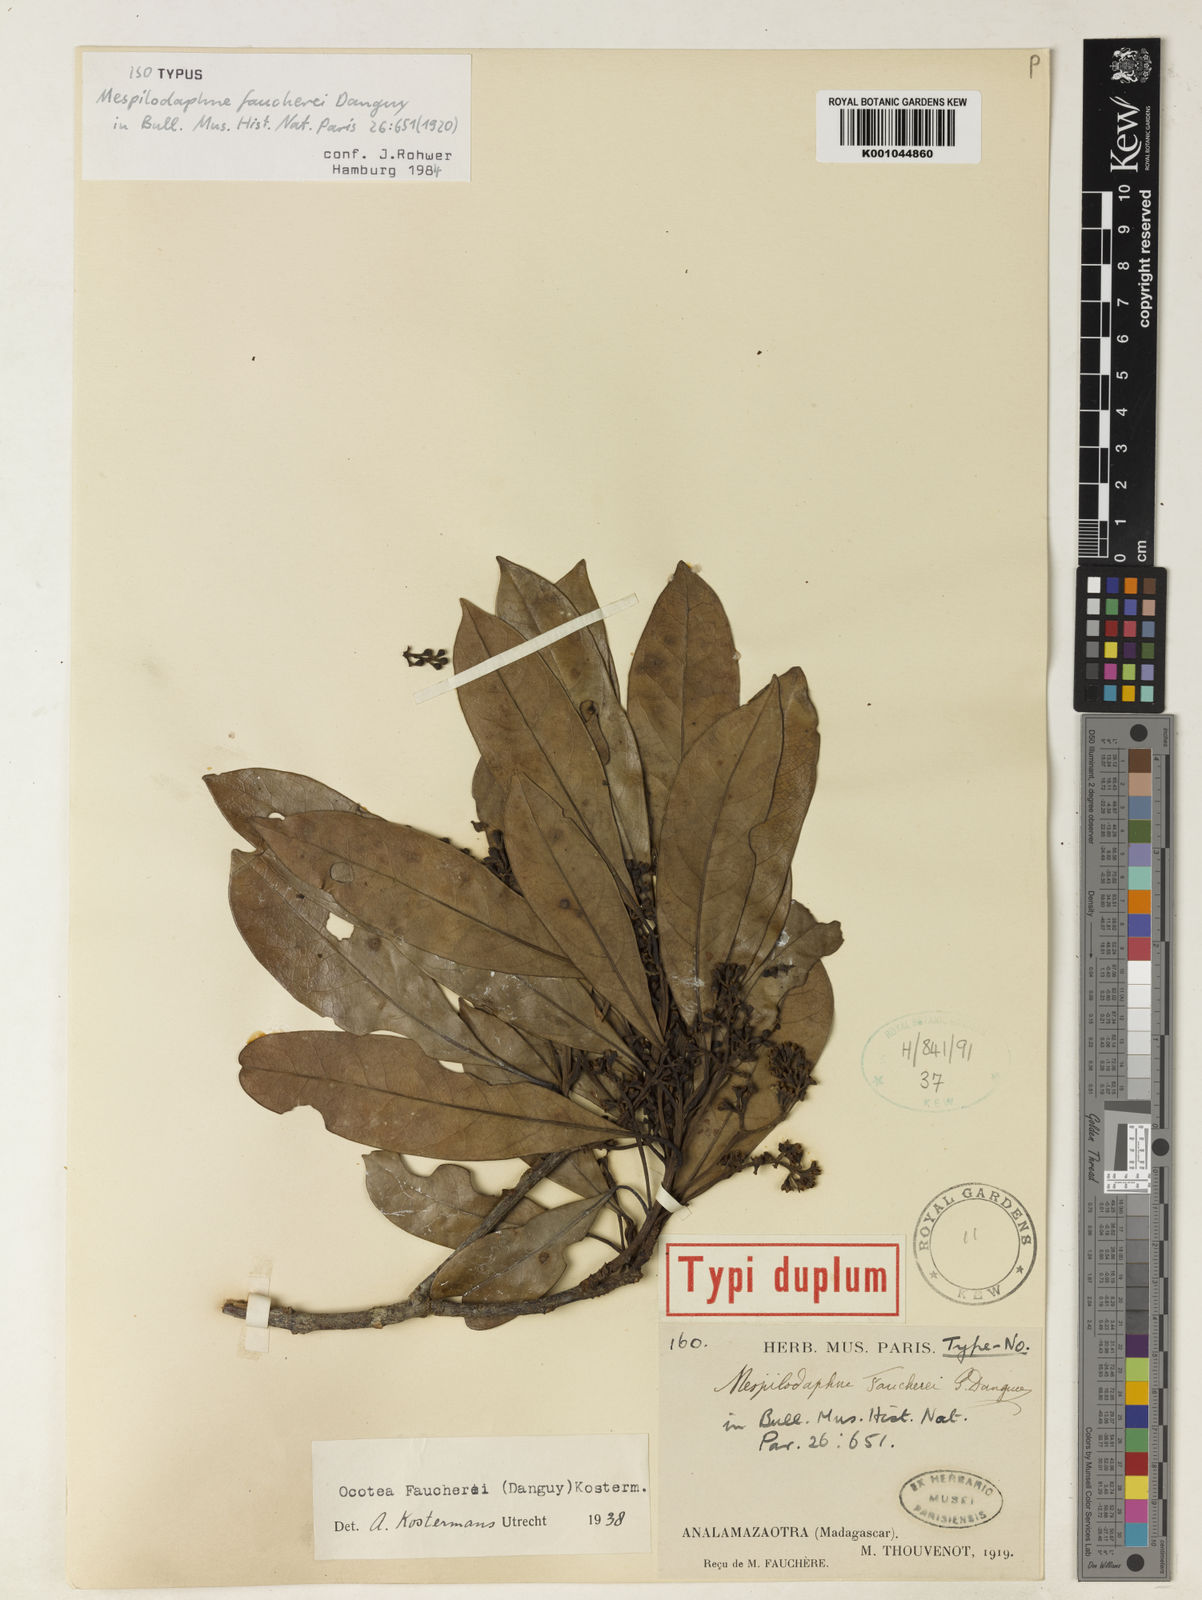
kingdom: Plantae
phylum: Tracheophyta
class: Magnoliopsida
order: Laurales
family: Lauraceae
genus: Mespilodaphne
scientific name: Mespilodaphne faucherei
